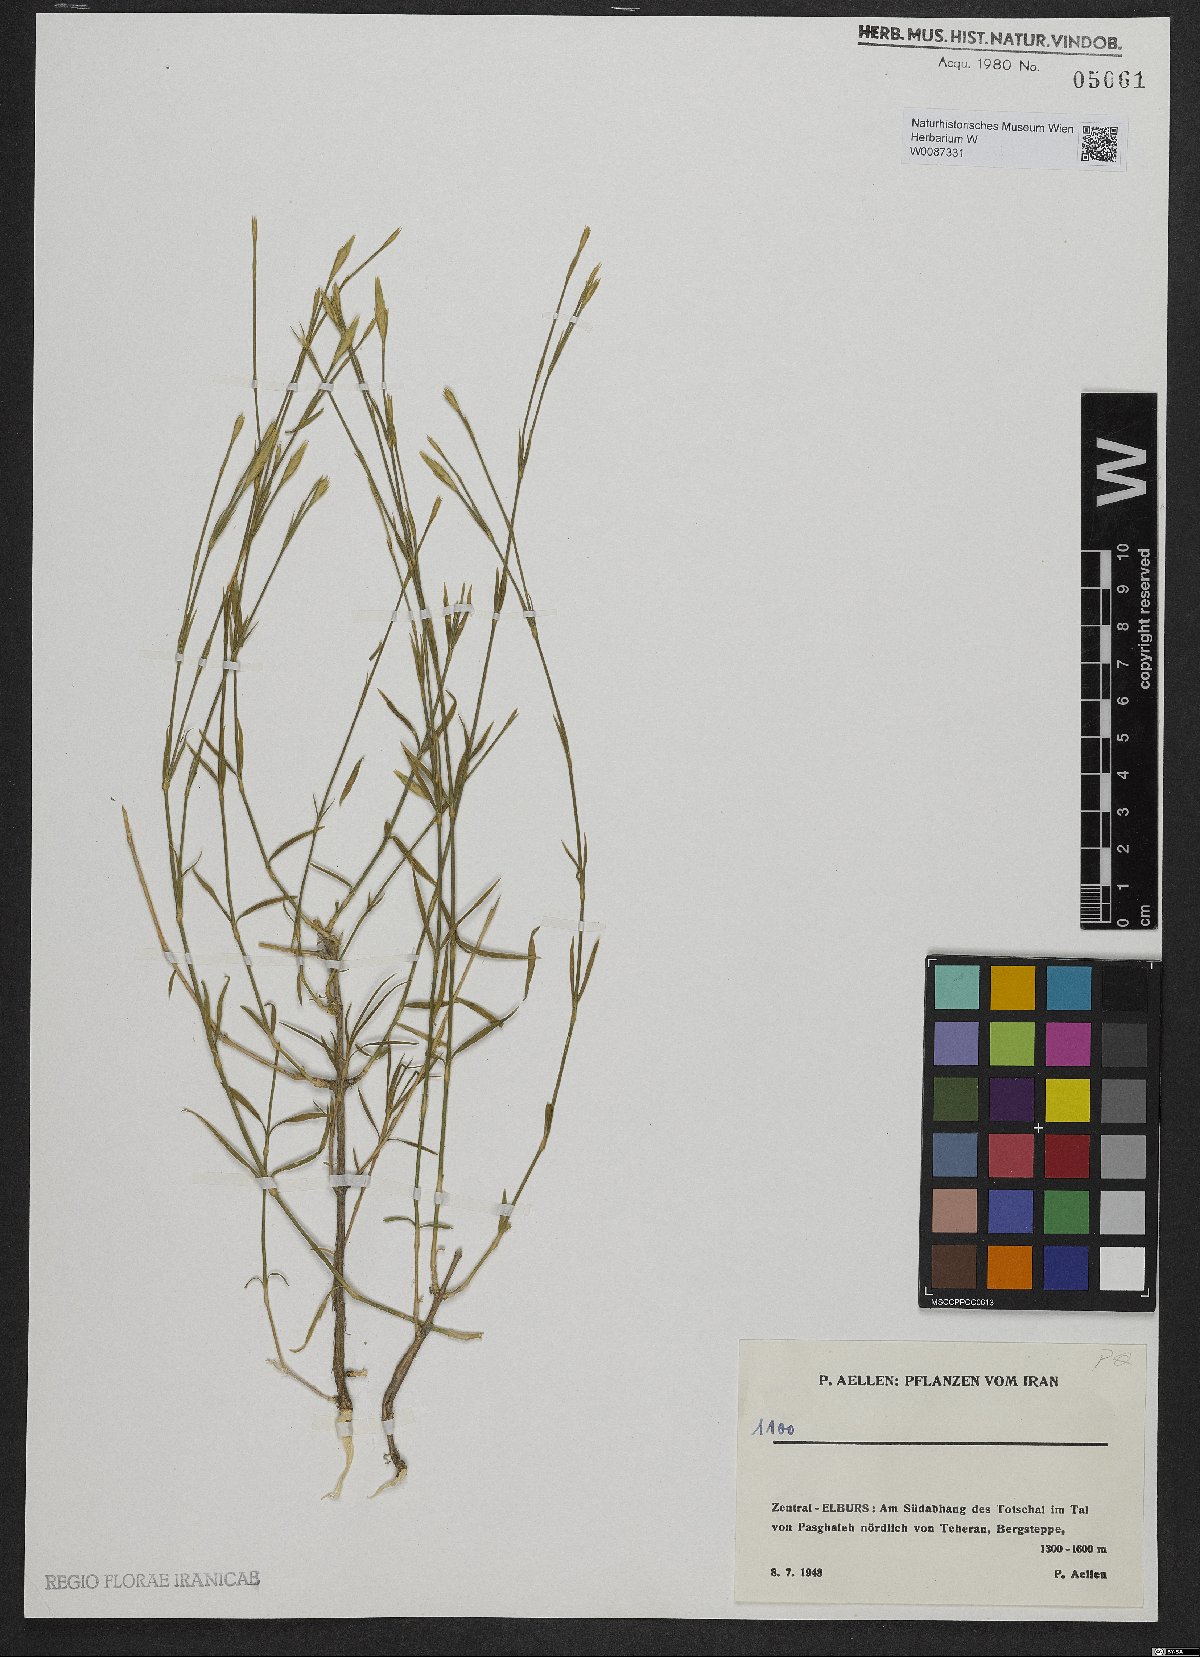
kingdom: Plantae
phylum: Tracheophyta
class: Magnoliopsida
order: Caryophyllales
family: Caryophyllaceae
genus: Dianthus
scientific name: Dianthus
